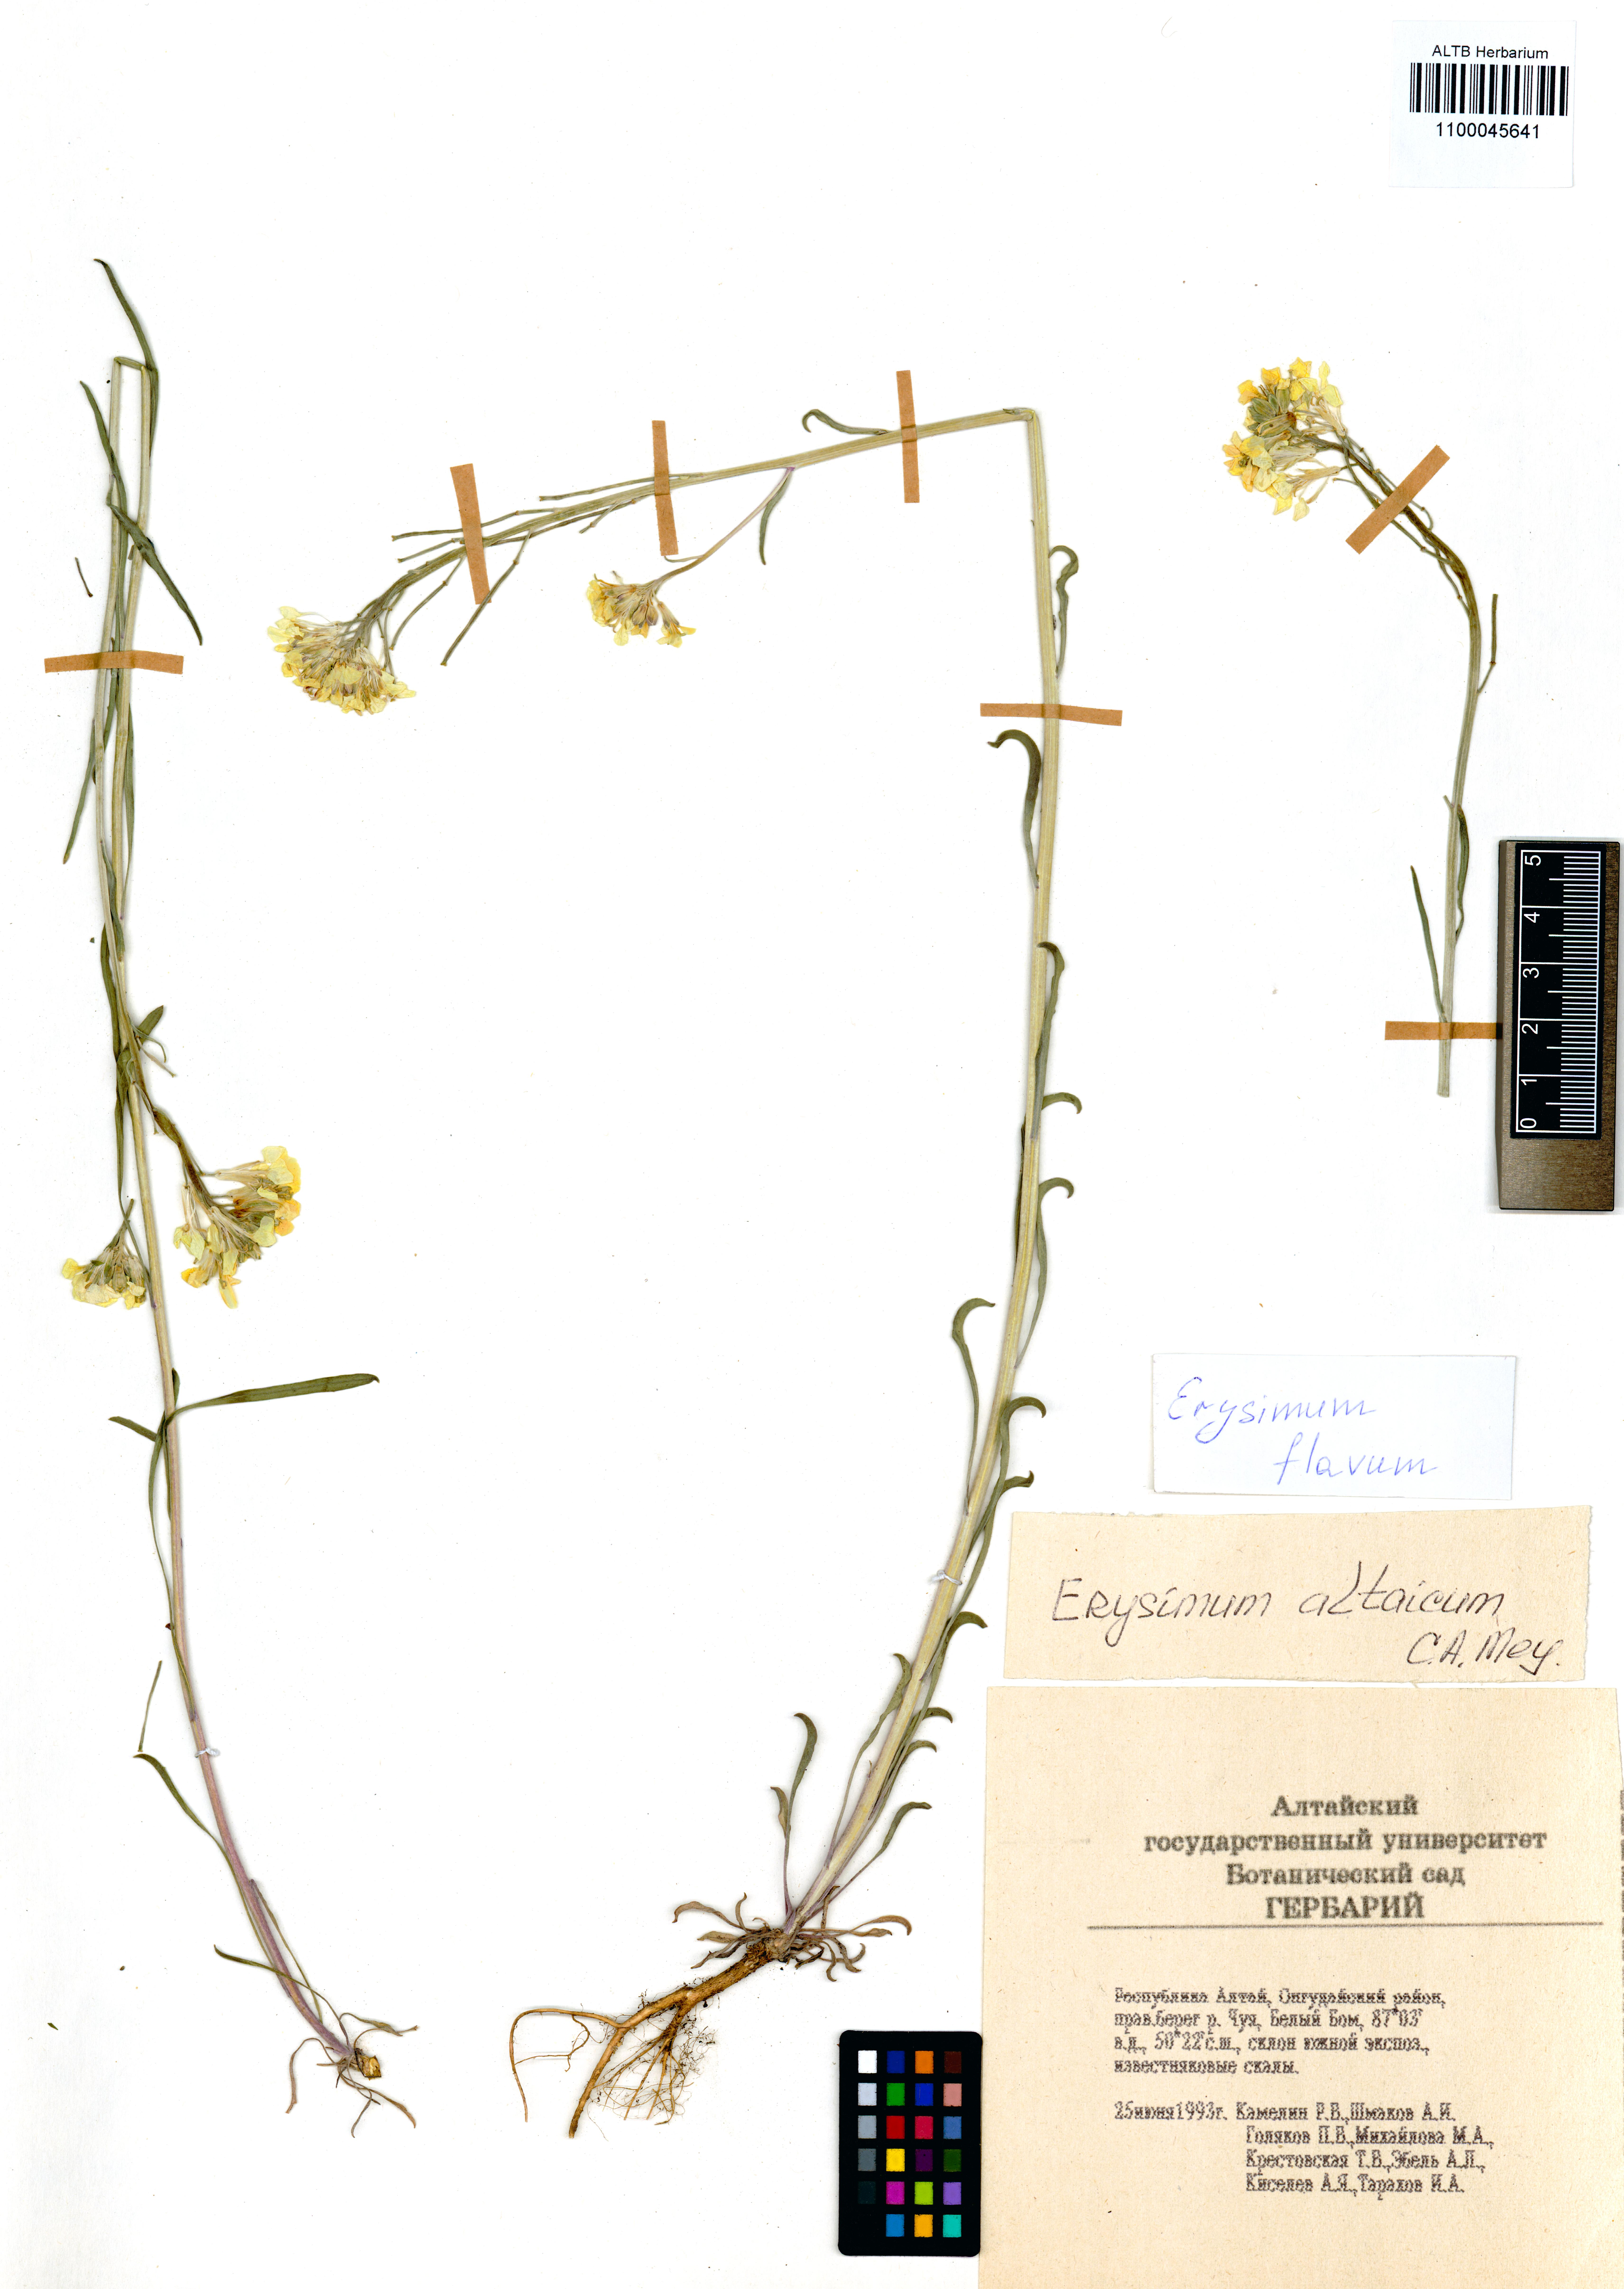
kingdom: Plantae
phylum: Tracheophyta
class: Magnoliopsida
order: Brassicales
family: Brassicaceae
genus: Erysimum
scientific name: Erysimum flavum
